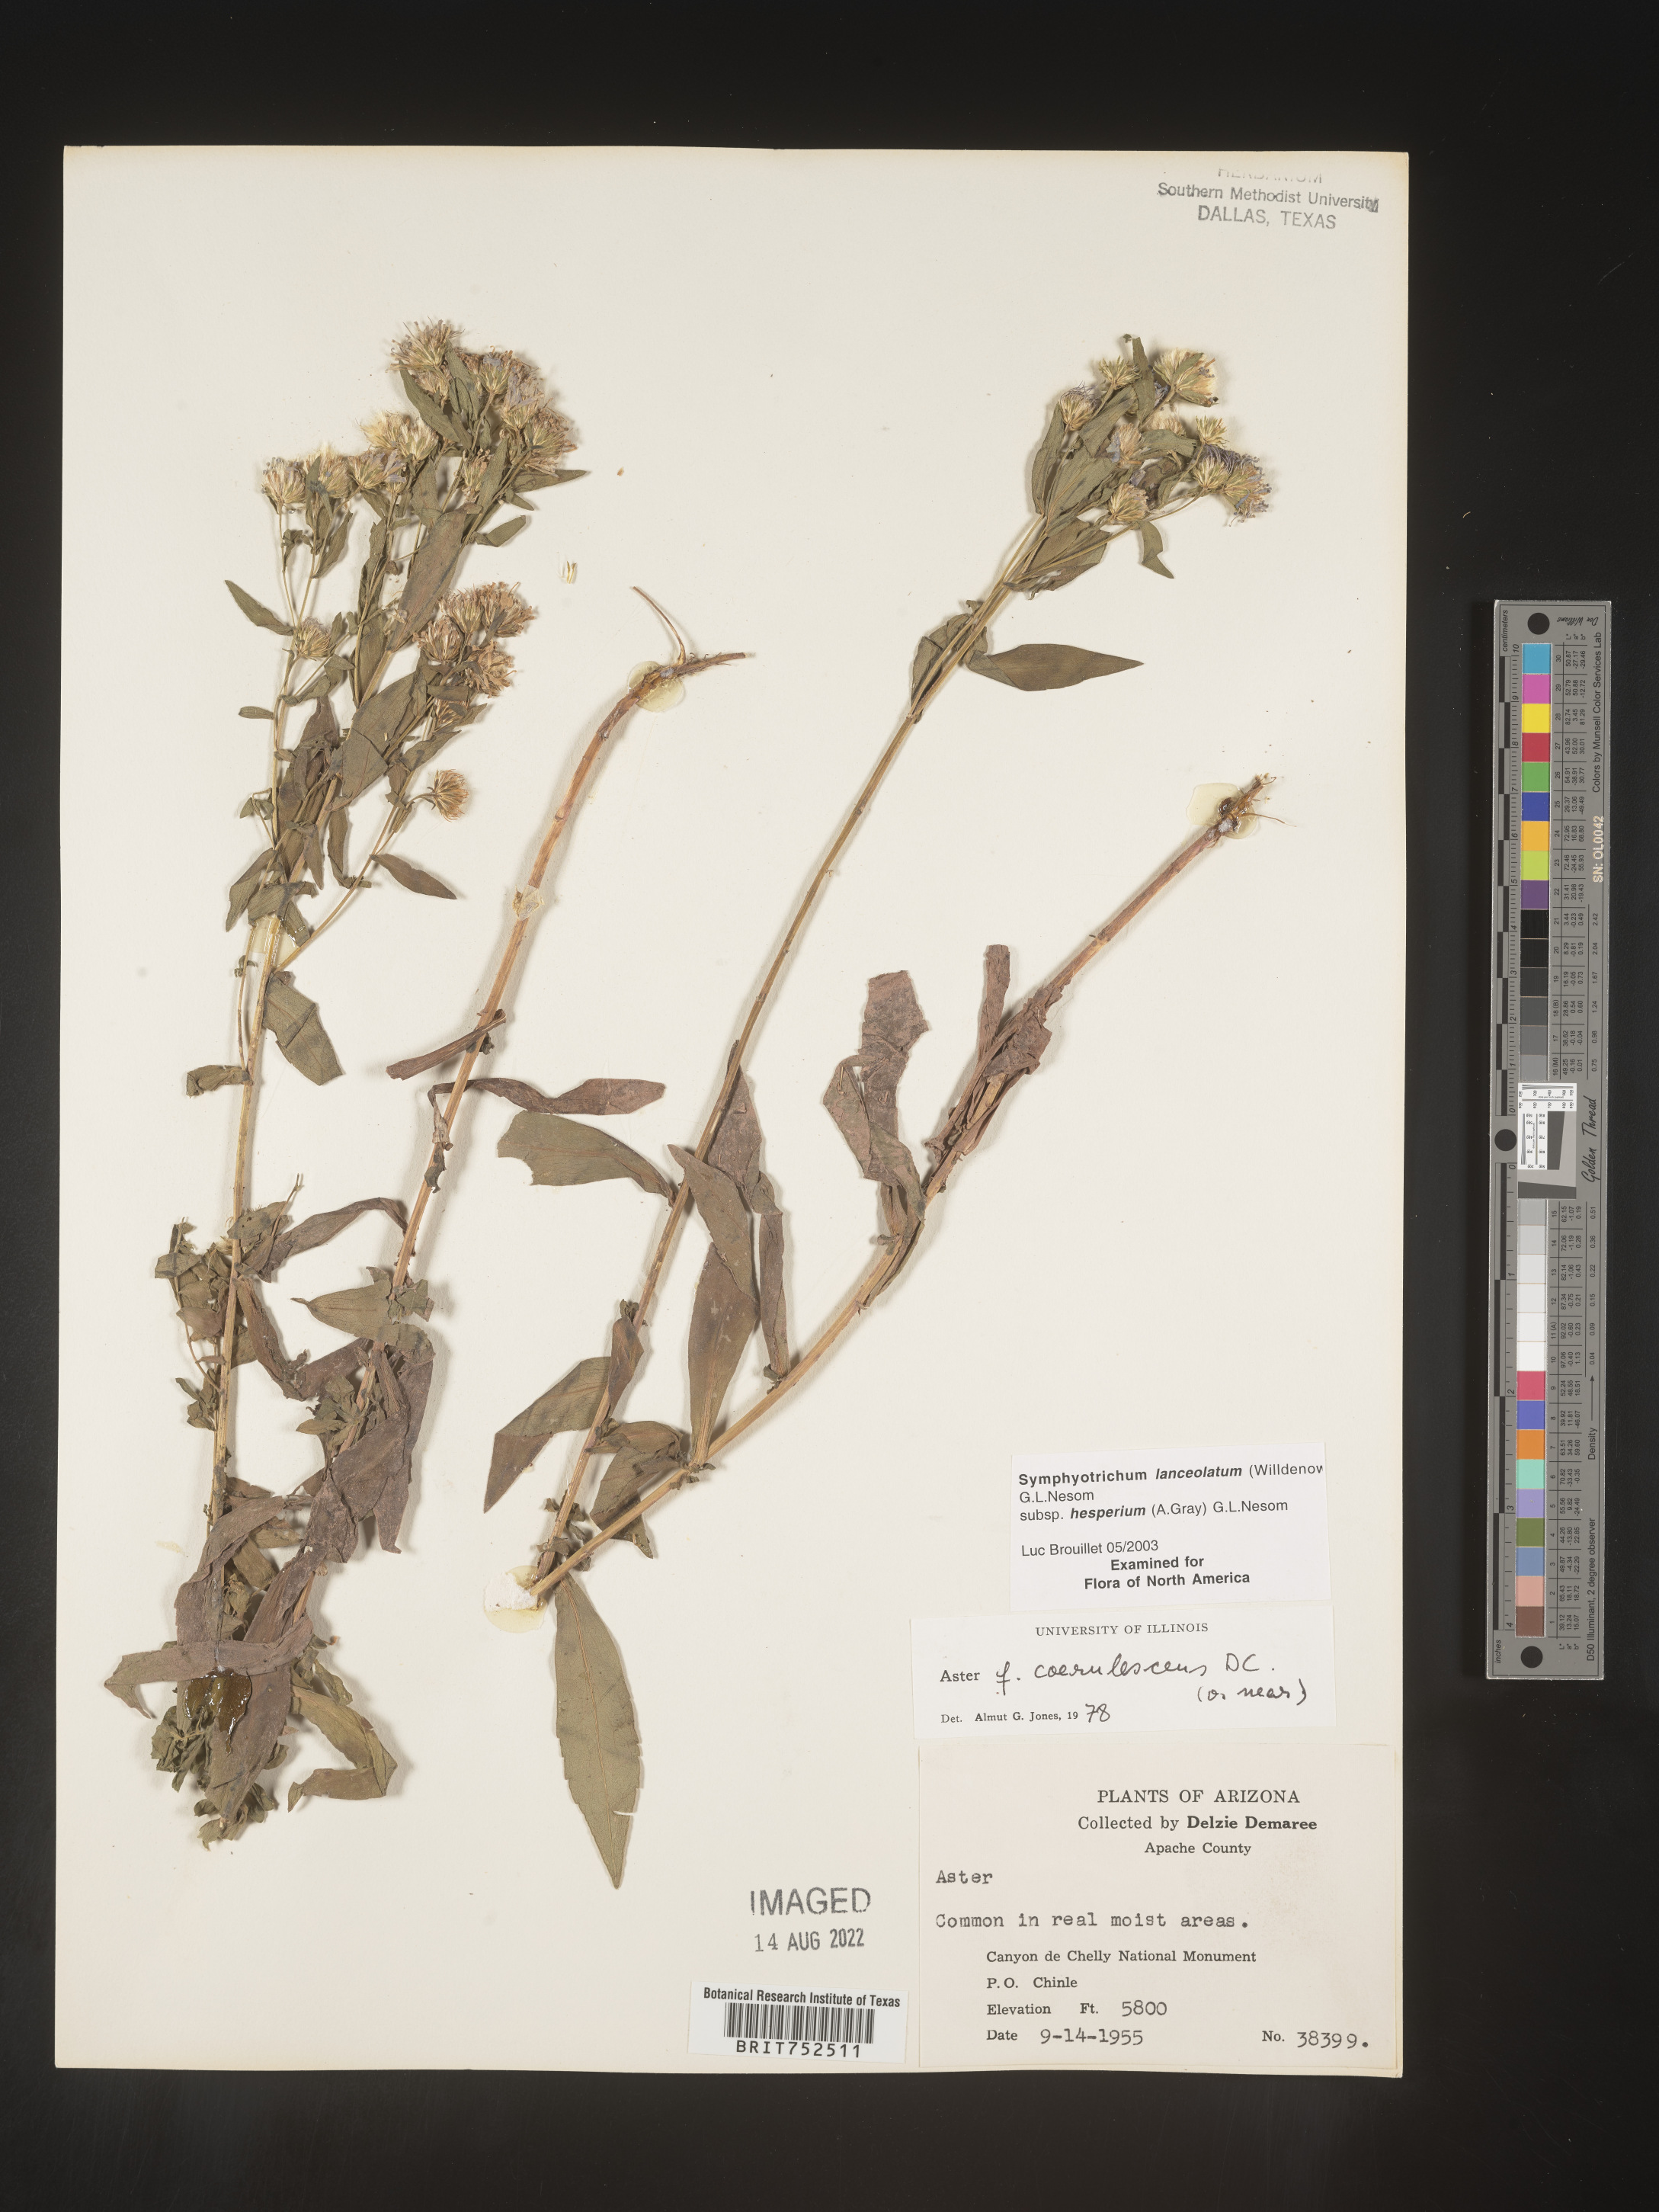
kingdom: Plantae
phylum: Tracheophyta
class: Magnoliopsida
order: Asterales
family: Asteraceae
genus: Symphyotrichum
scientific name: Symphyotrichum lanceolatum
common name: Panicled aster
